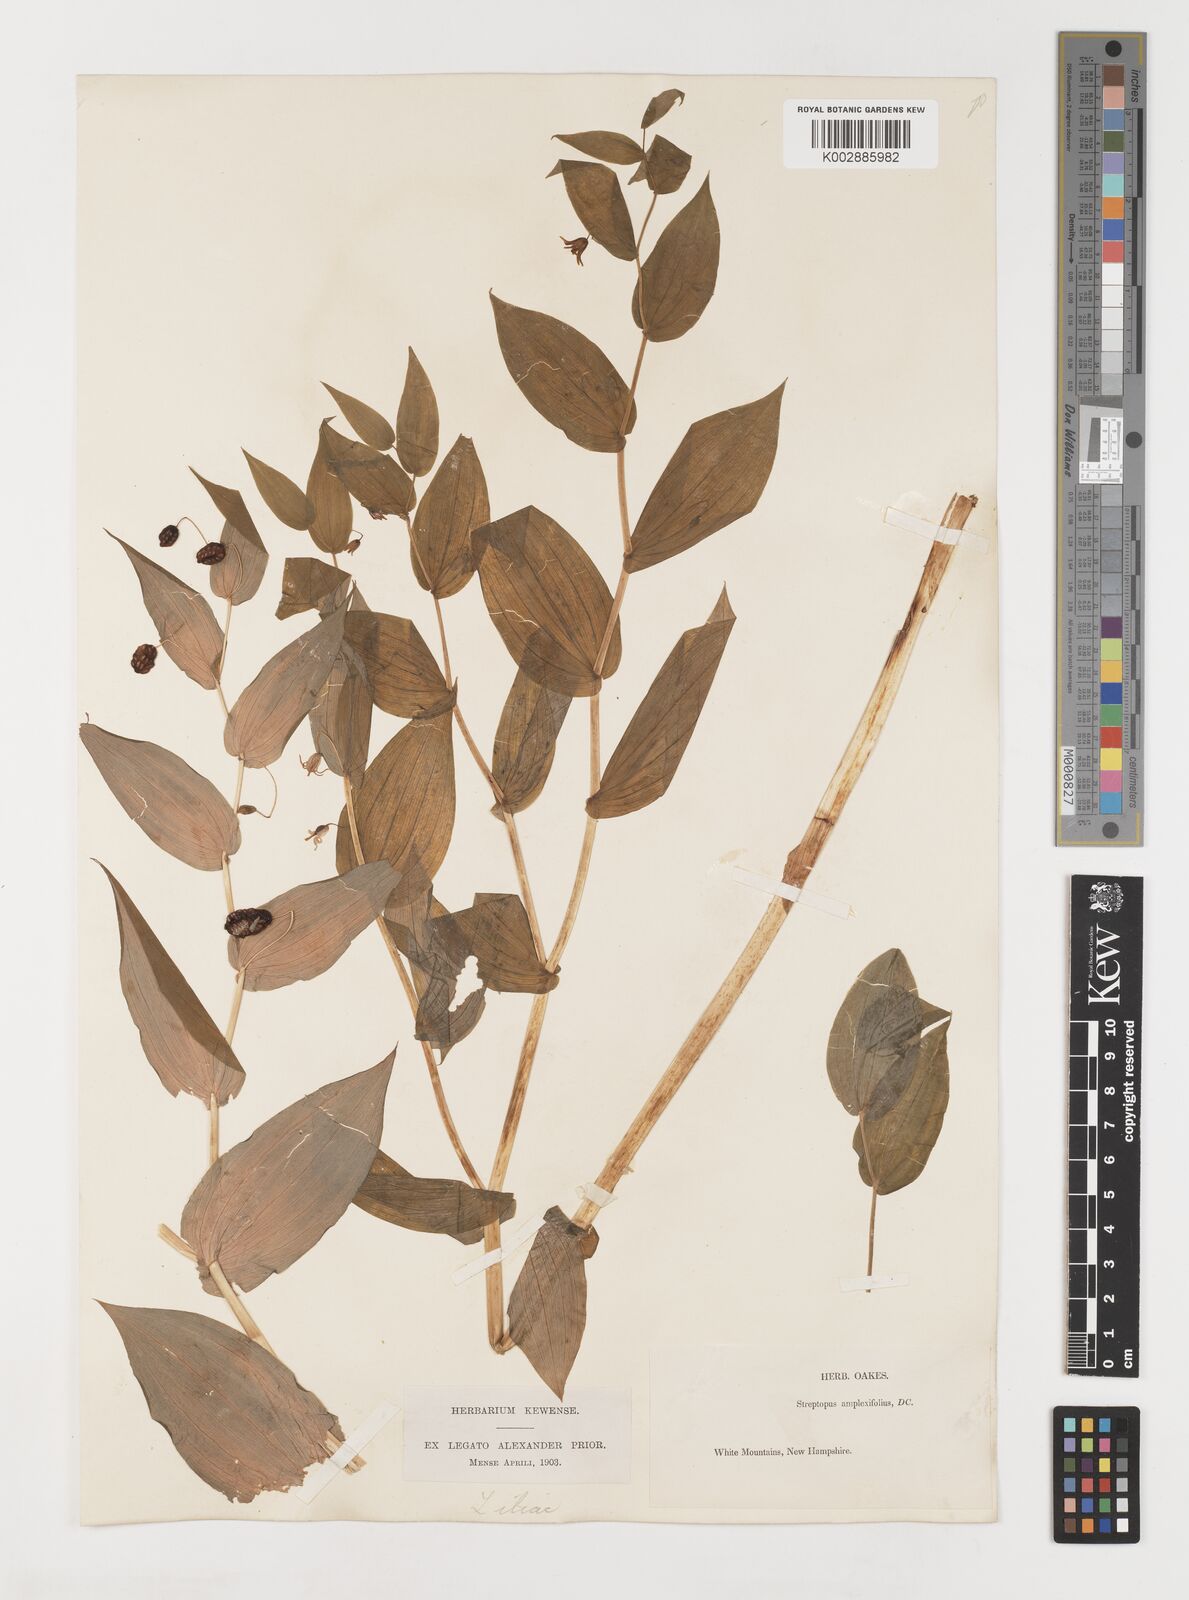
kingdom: Plantae
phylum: Tracheophyta
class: Liliopsida
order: Liliales
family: Liliaceae
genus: Streptopus
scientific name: Streptopus amplexifolius
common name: Clasp twisted stalk
